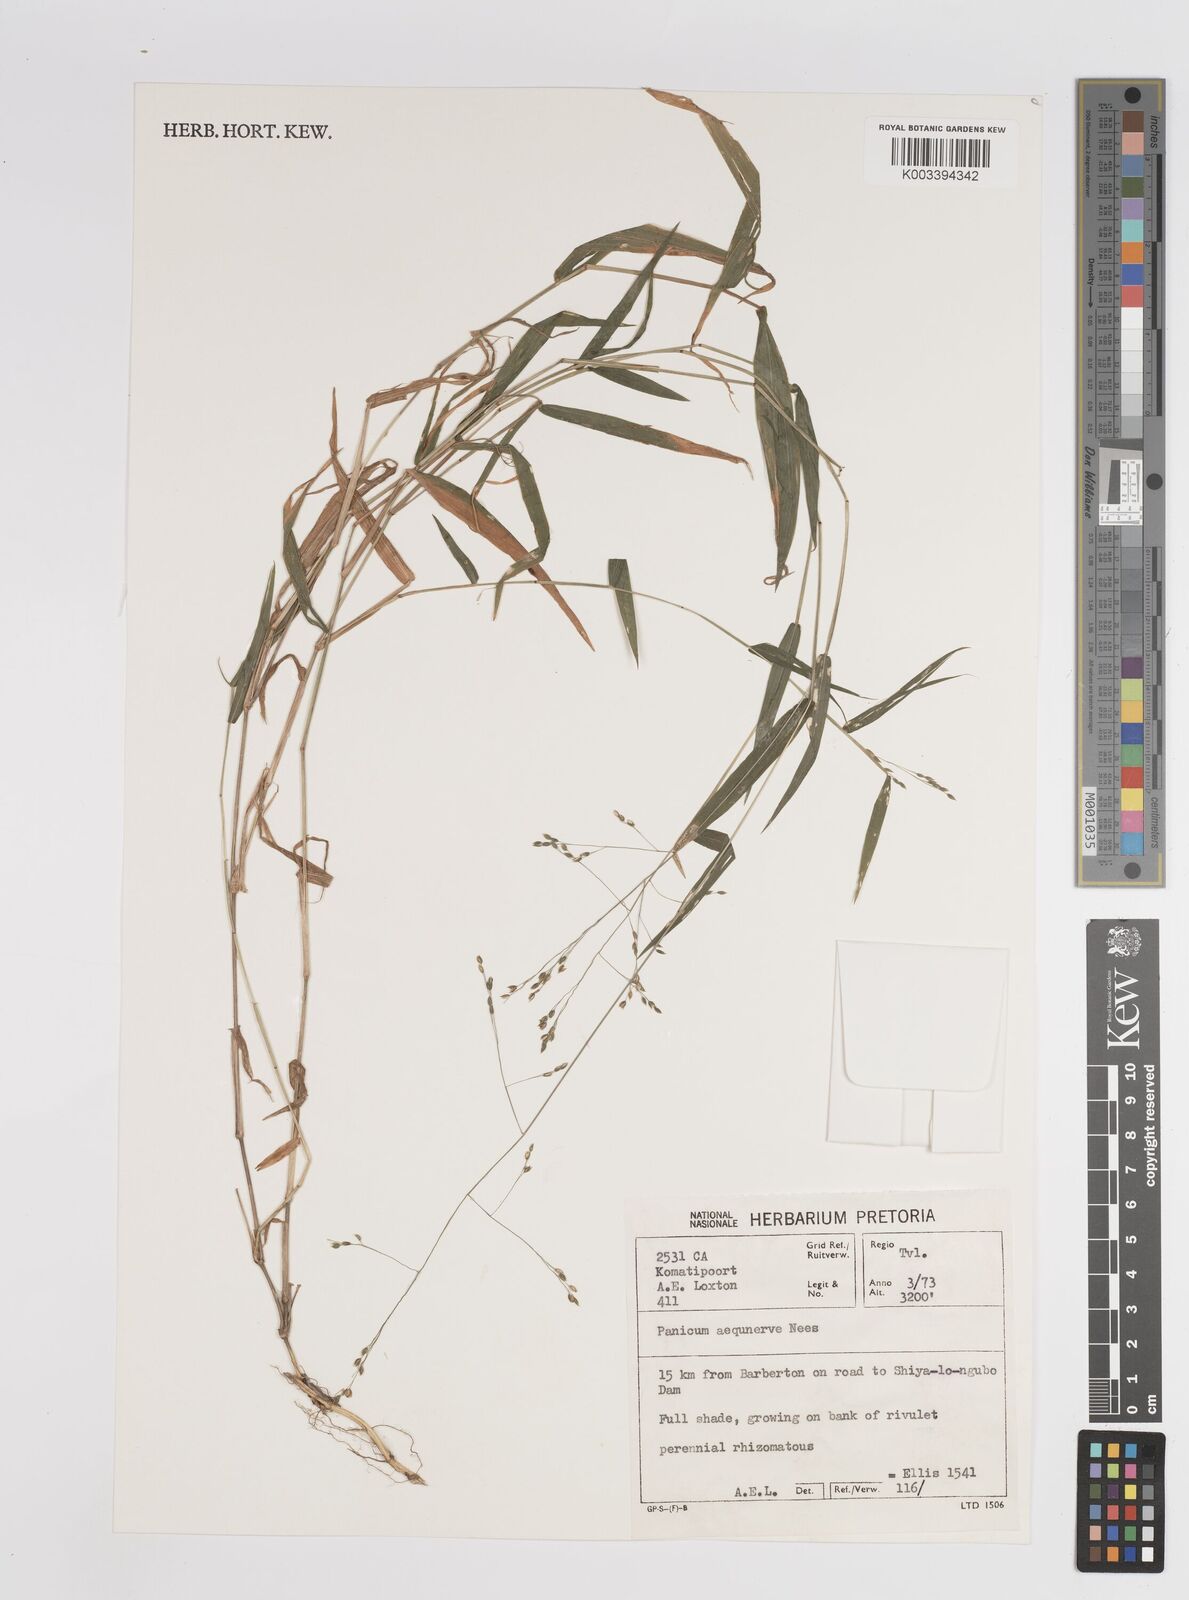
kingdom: Plantae
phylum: Tracheophyta
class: Liliopsida
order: Poales
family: Poaceae
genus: Panicum
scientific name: Panicum aequinerve
